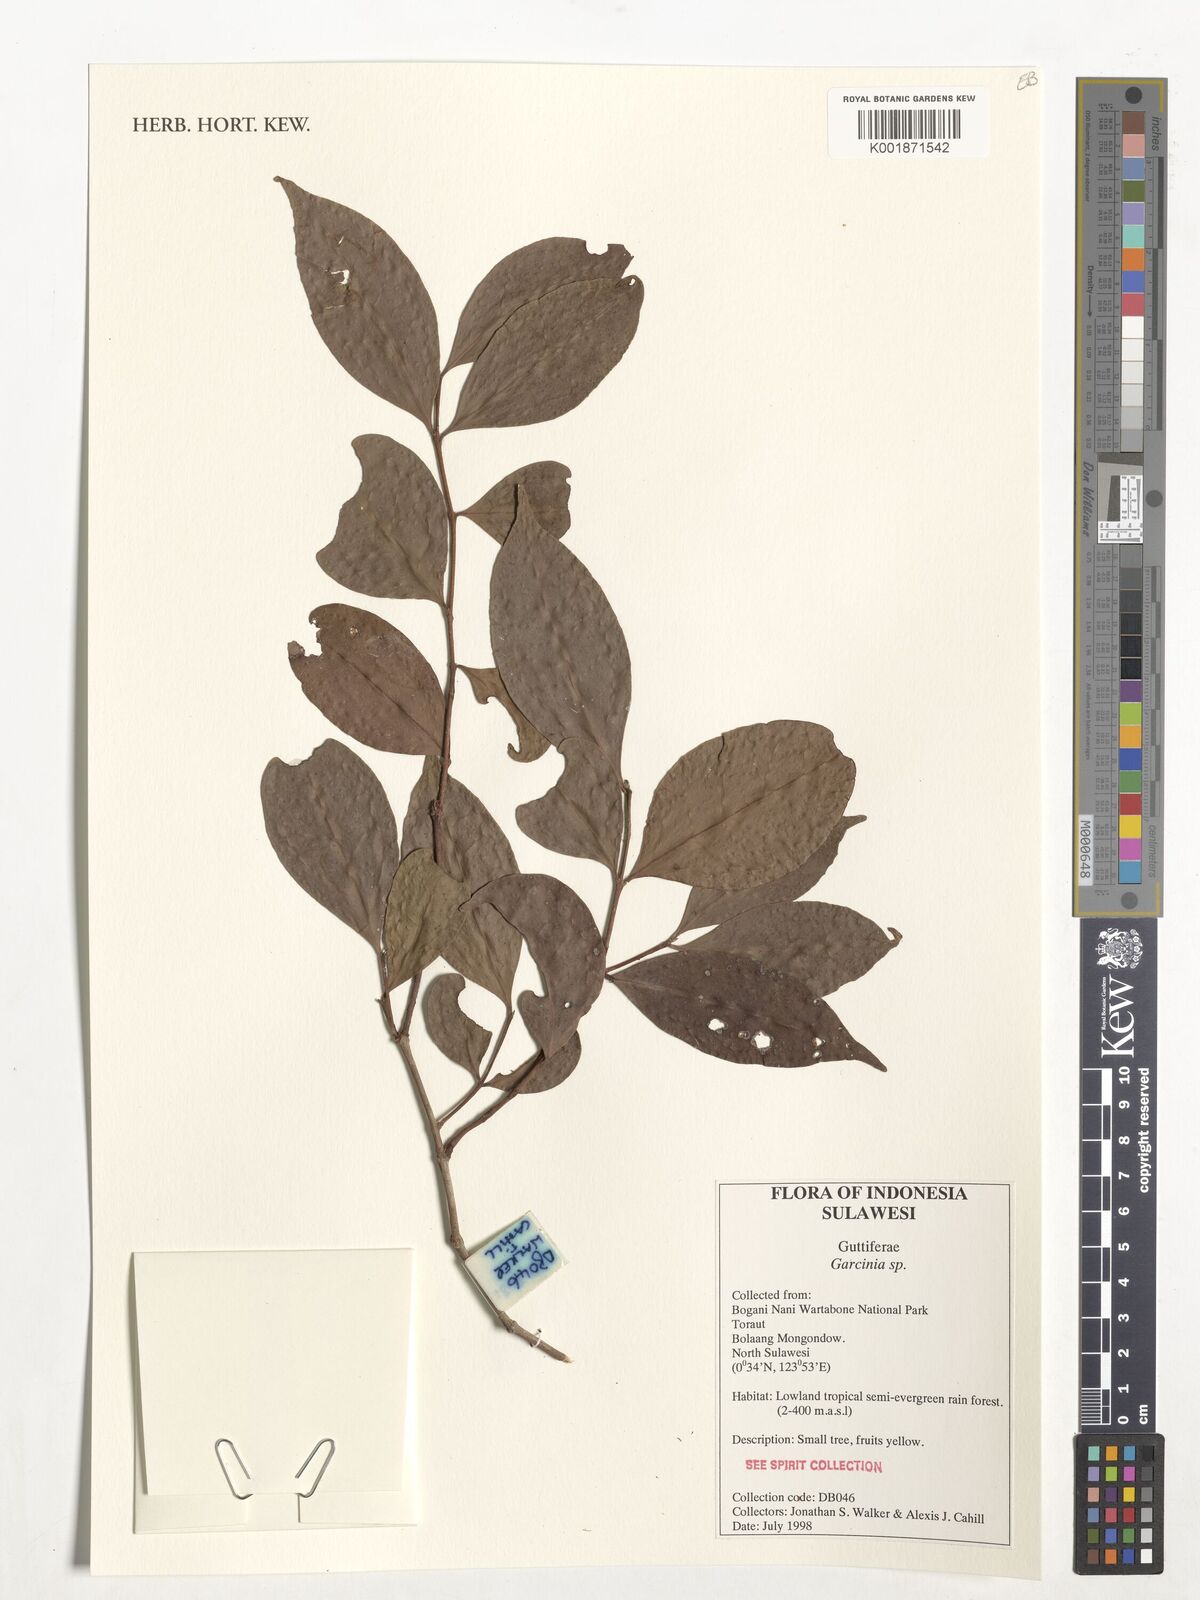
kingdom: Plantae
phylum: Tracheophyta
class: Magnoliopsida
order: Malpighiales
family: Clusiaceae
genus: Garcinia
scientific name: Garcinia
